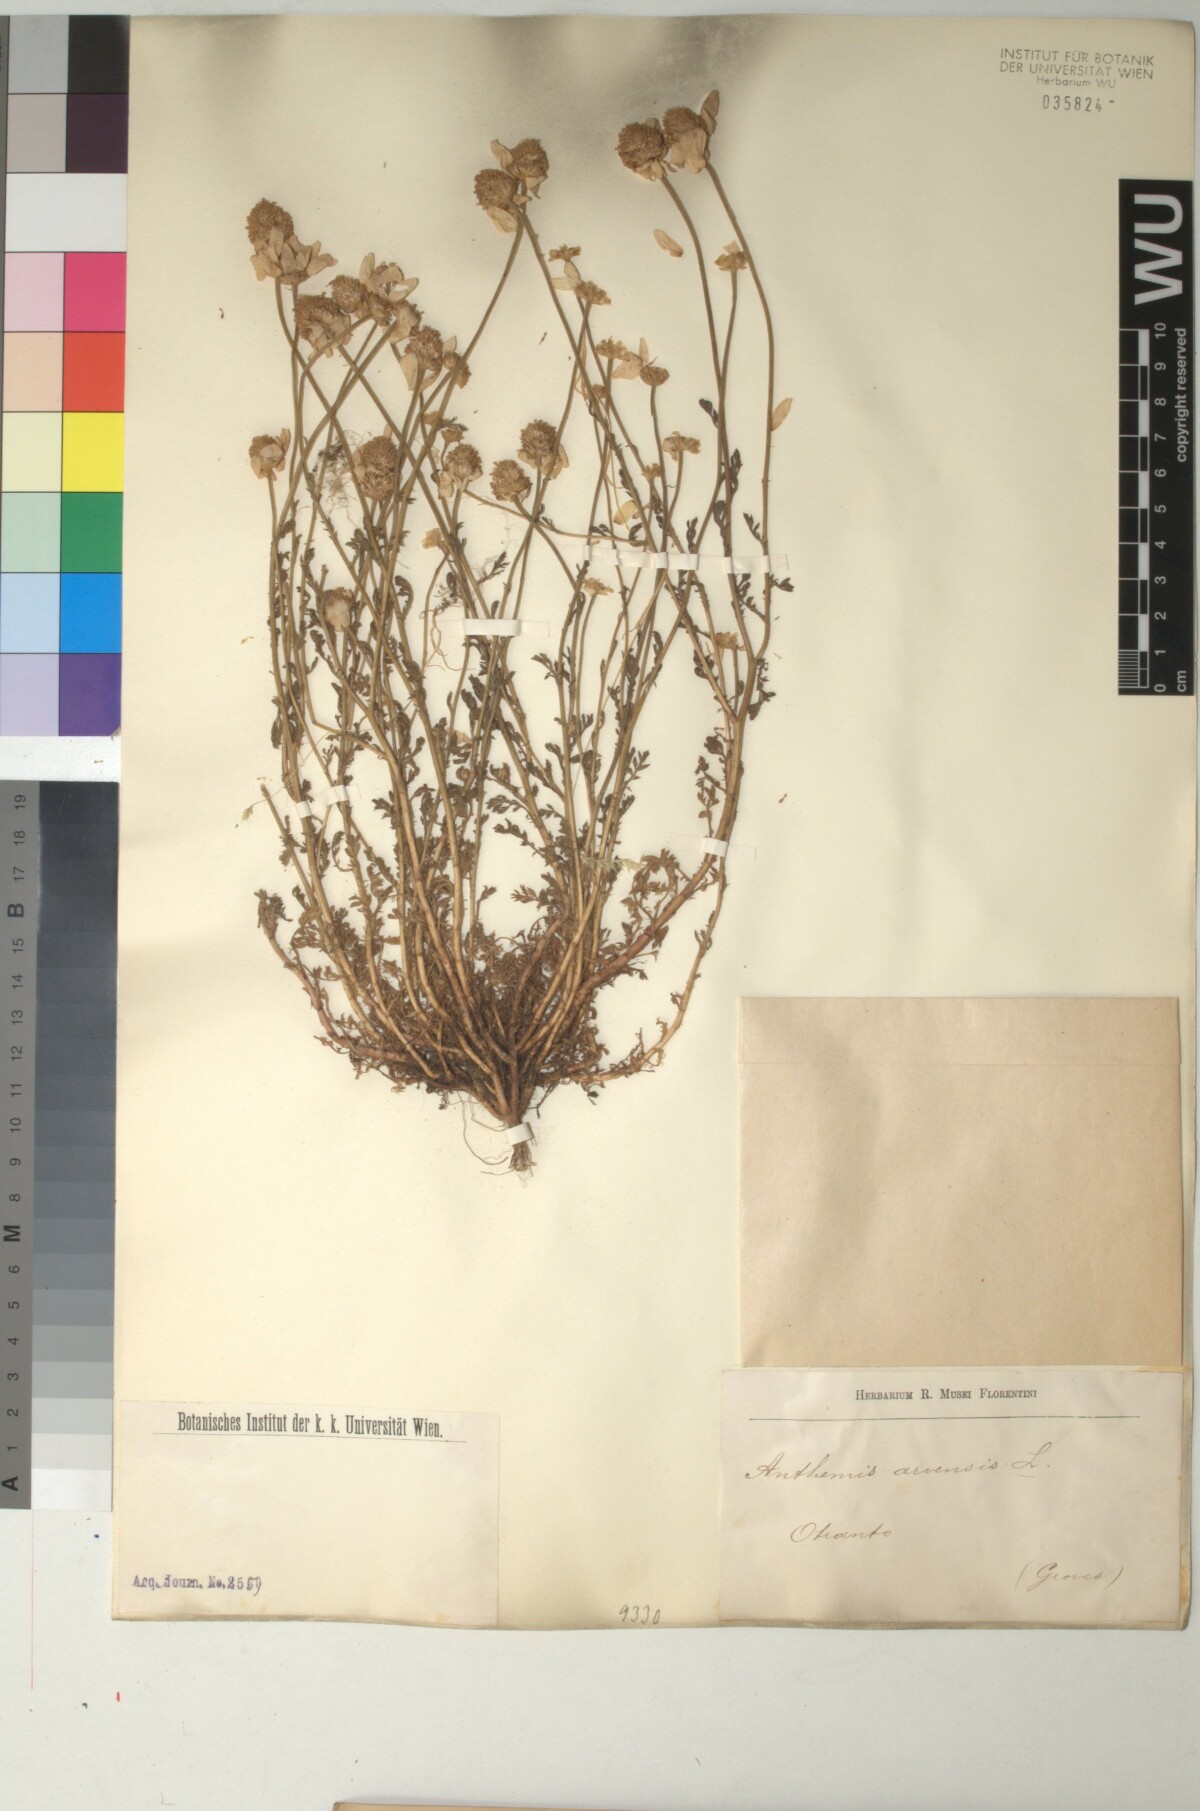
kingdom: Plantae
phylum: Tracheophyta
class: Magnoliopsida
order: Asterales
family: Asteraceae
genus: Anthemis
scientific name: Anthemis arvensis
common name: Corn chamomile
